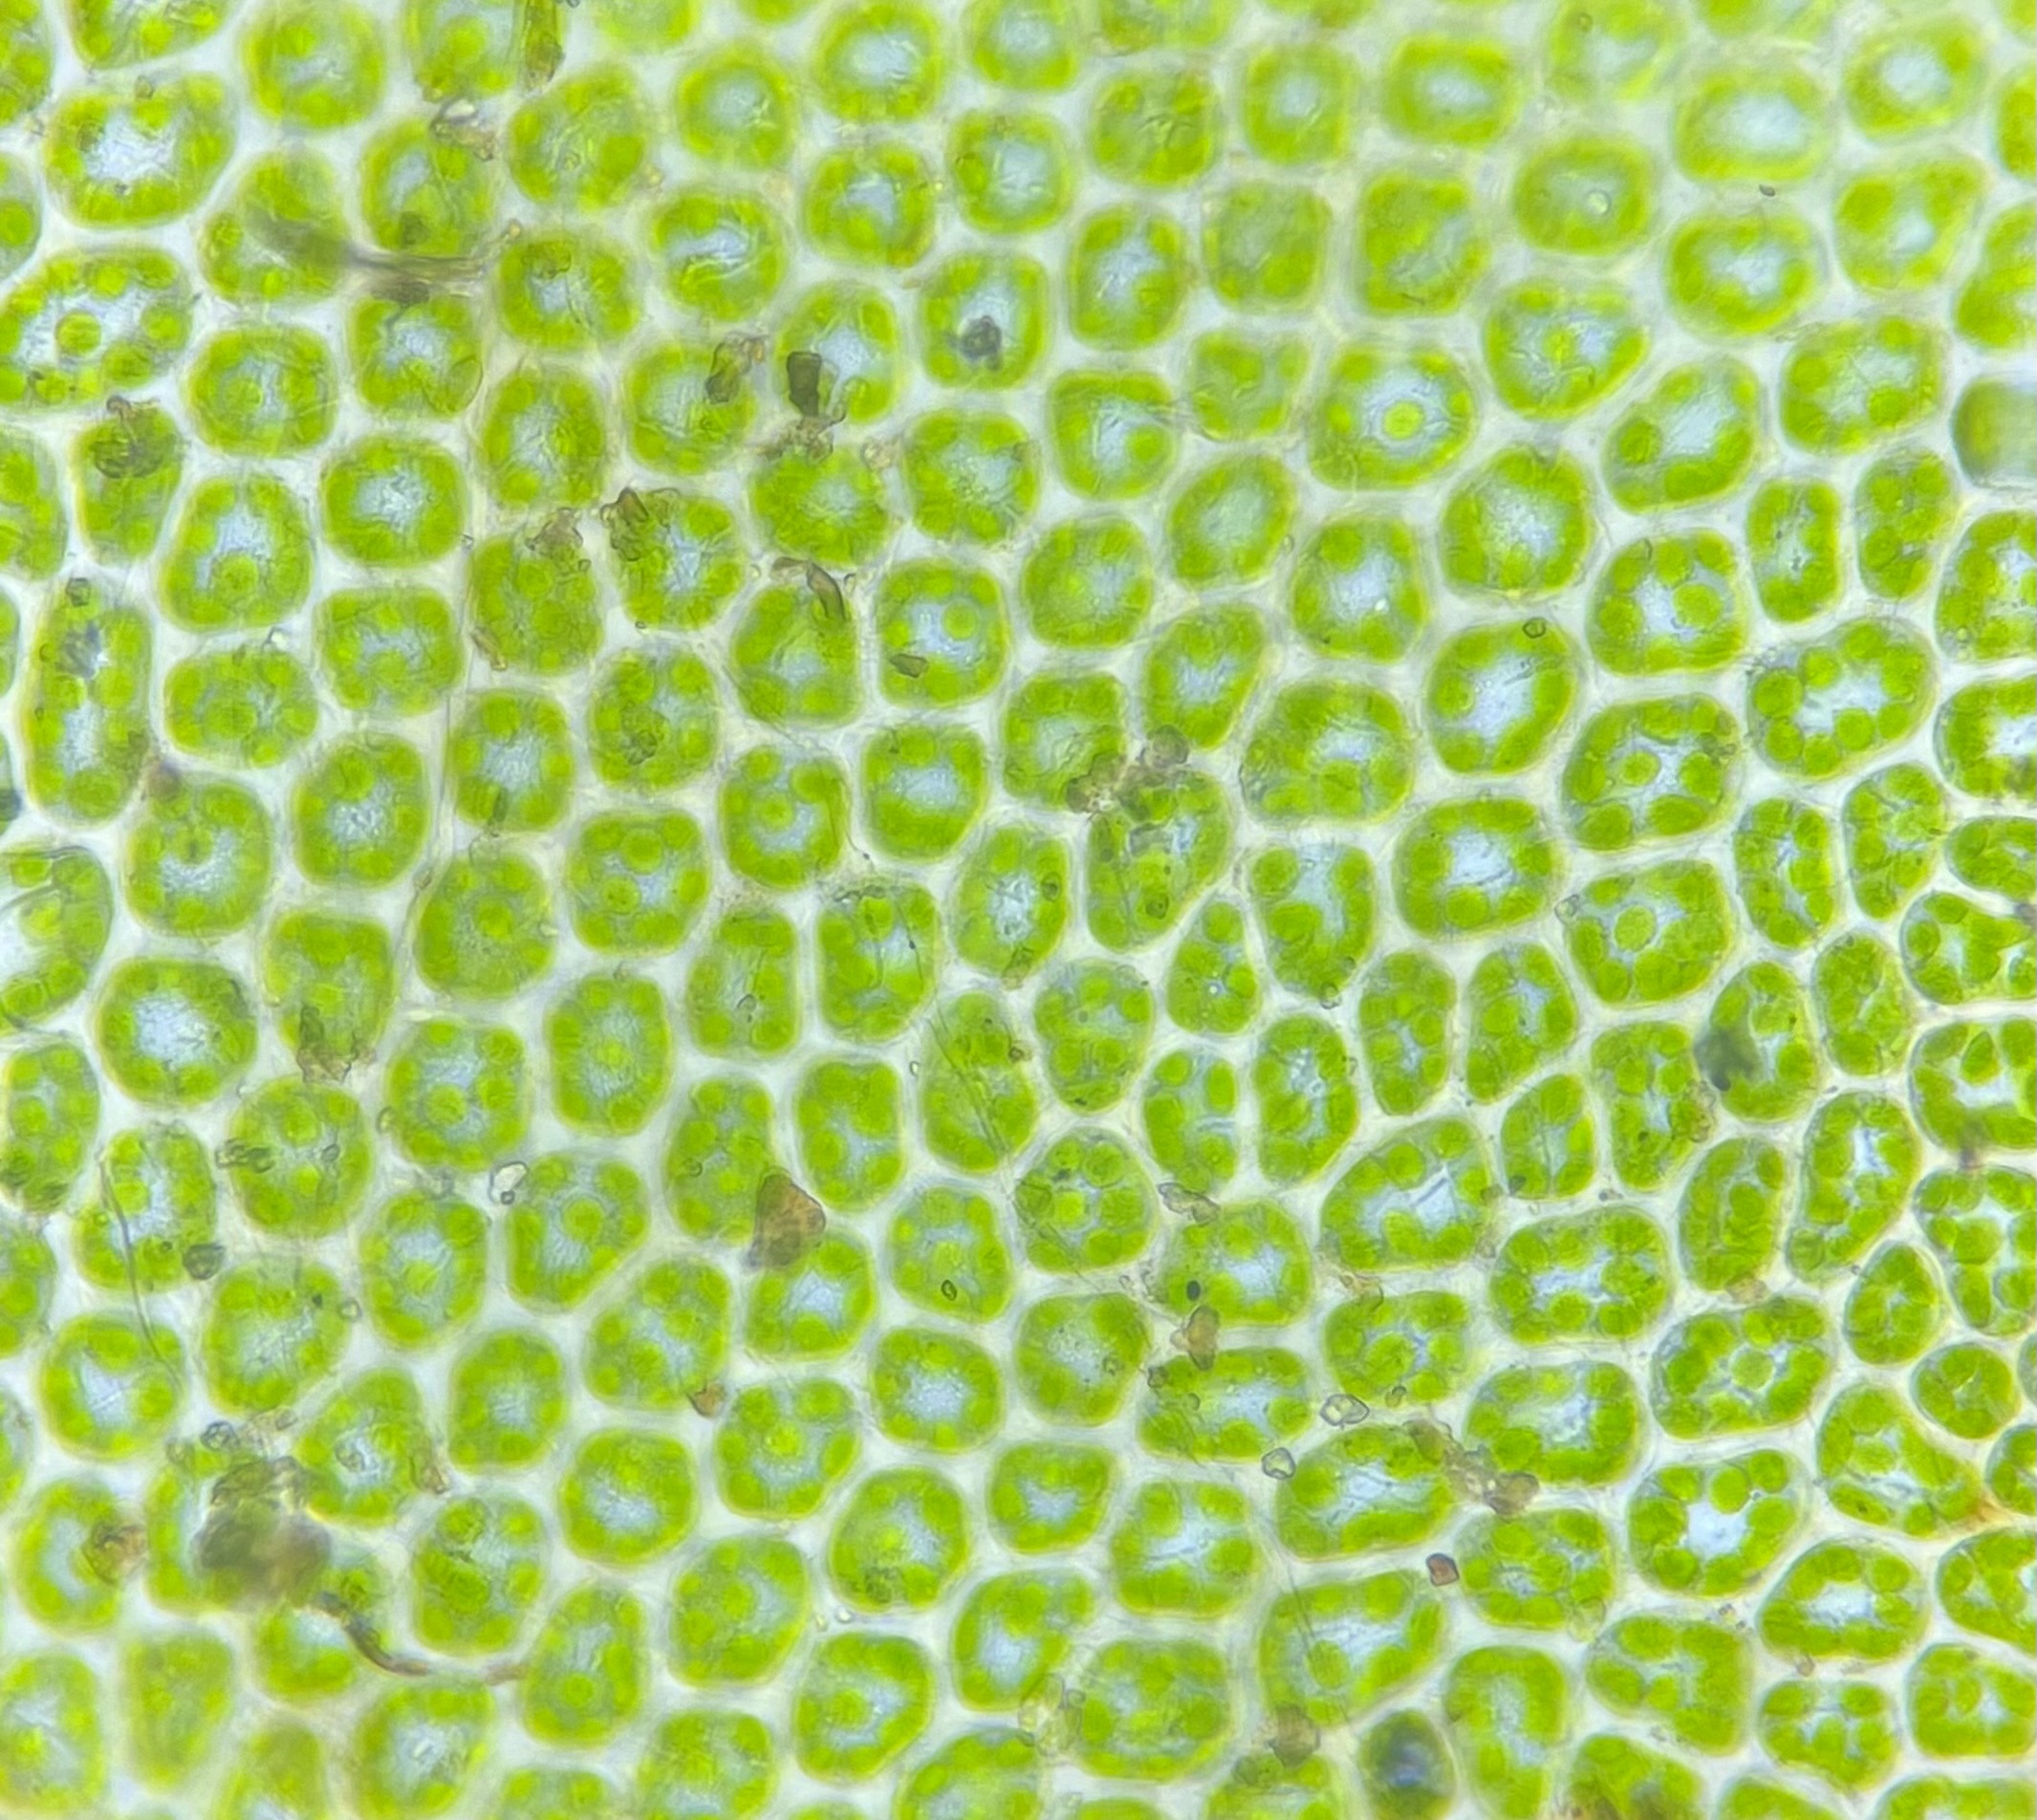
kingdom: Plantae
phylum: Bryophyta
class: Bryopsida
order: Bryales
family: Mniaceae
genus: Mnium
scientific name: Mnium marginatum
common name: Rødlig stjernemos
